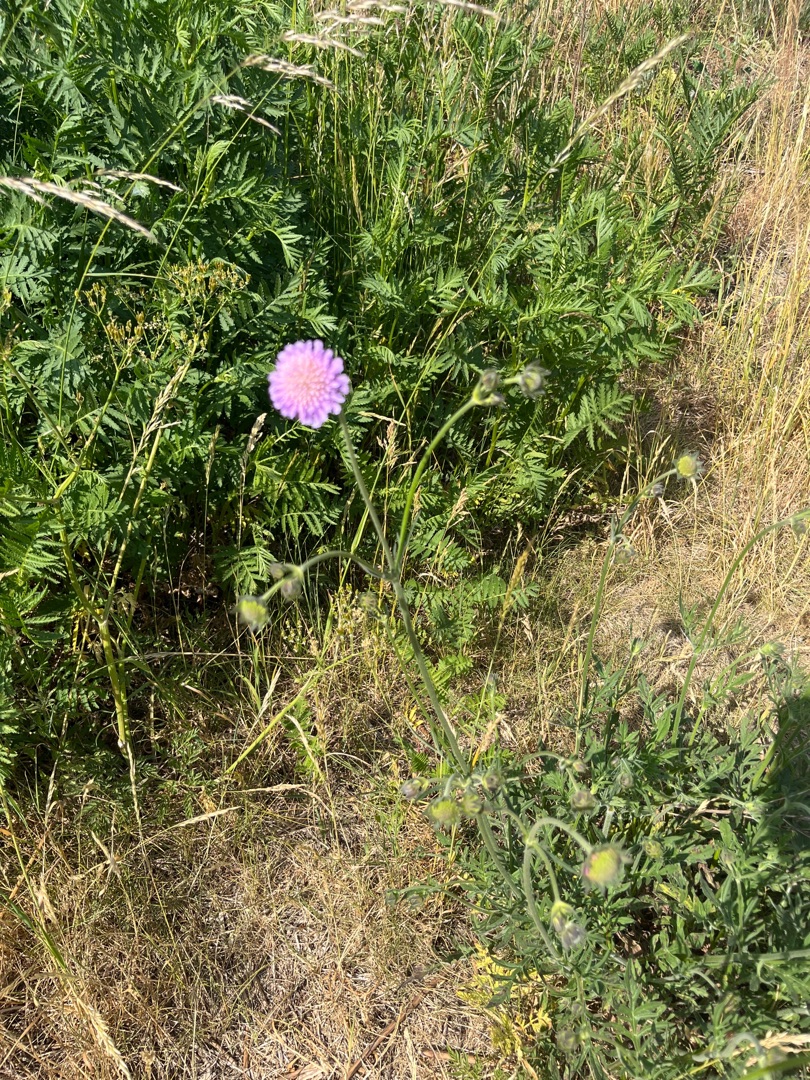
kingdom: Plantae
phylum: Tracheophyta
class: Magnoliopsida
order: Dipsacales
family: Caprifoliaceae
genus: Knautia
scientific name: Knautia arvensis
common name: Blåhat
